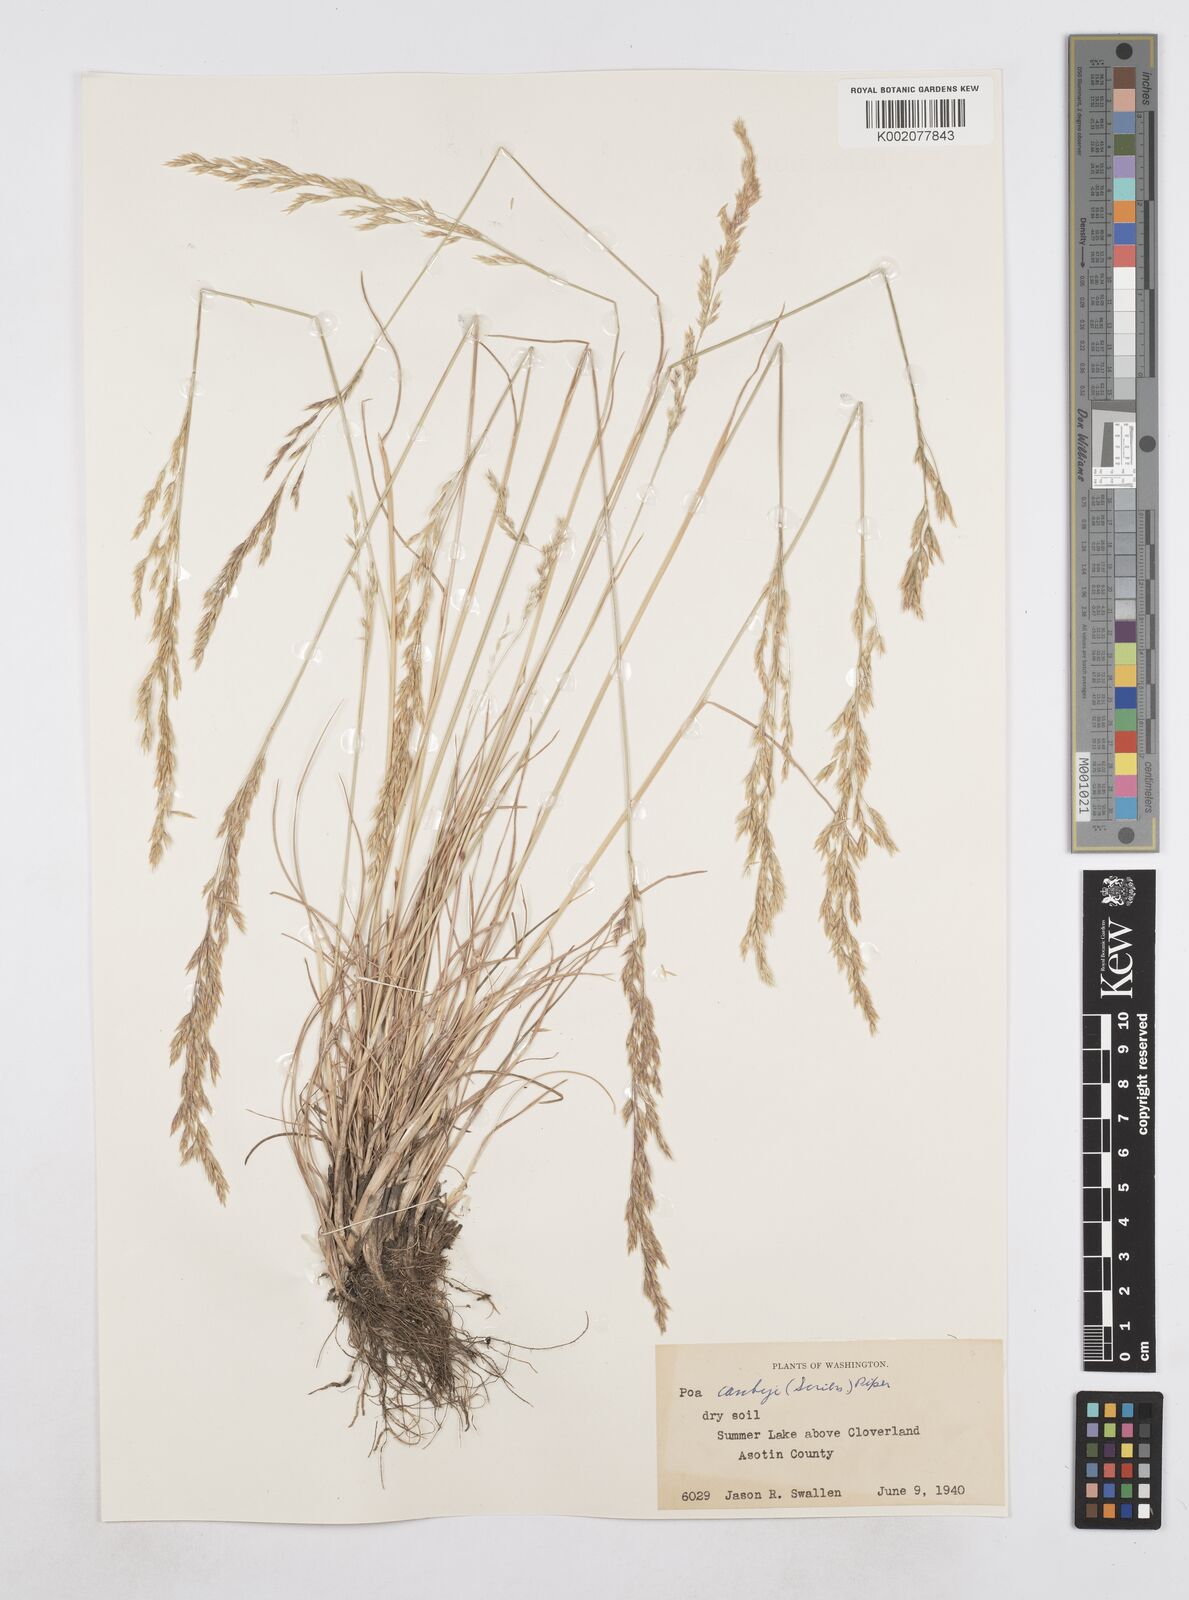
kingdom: Plantae
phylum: Tracheophyta
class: Liliopsida
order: Poales
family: Poaceae
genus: Poa
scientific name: Poa secunda
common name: Sandberg bluegrass
